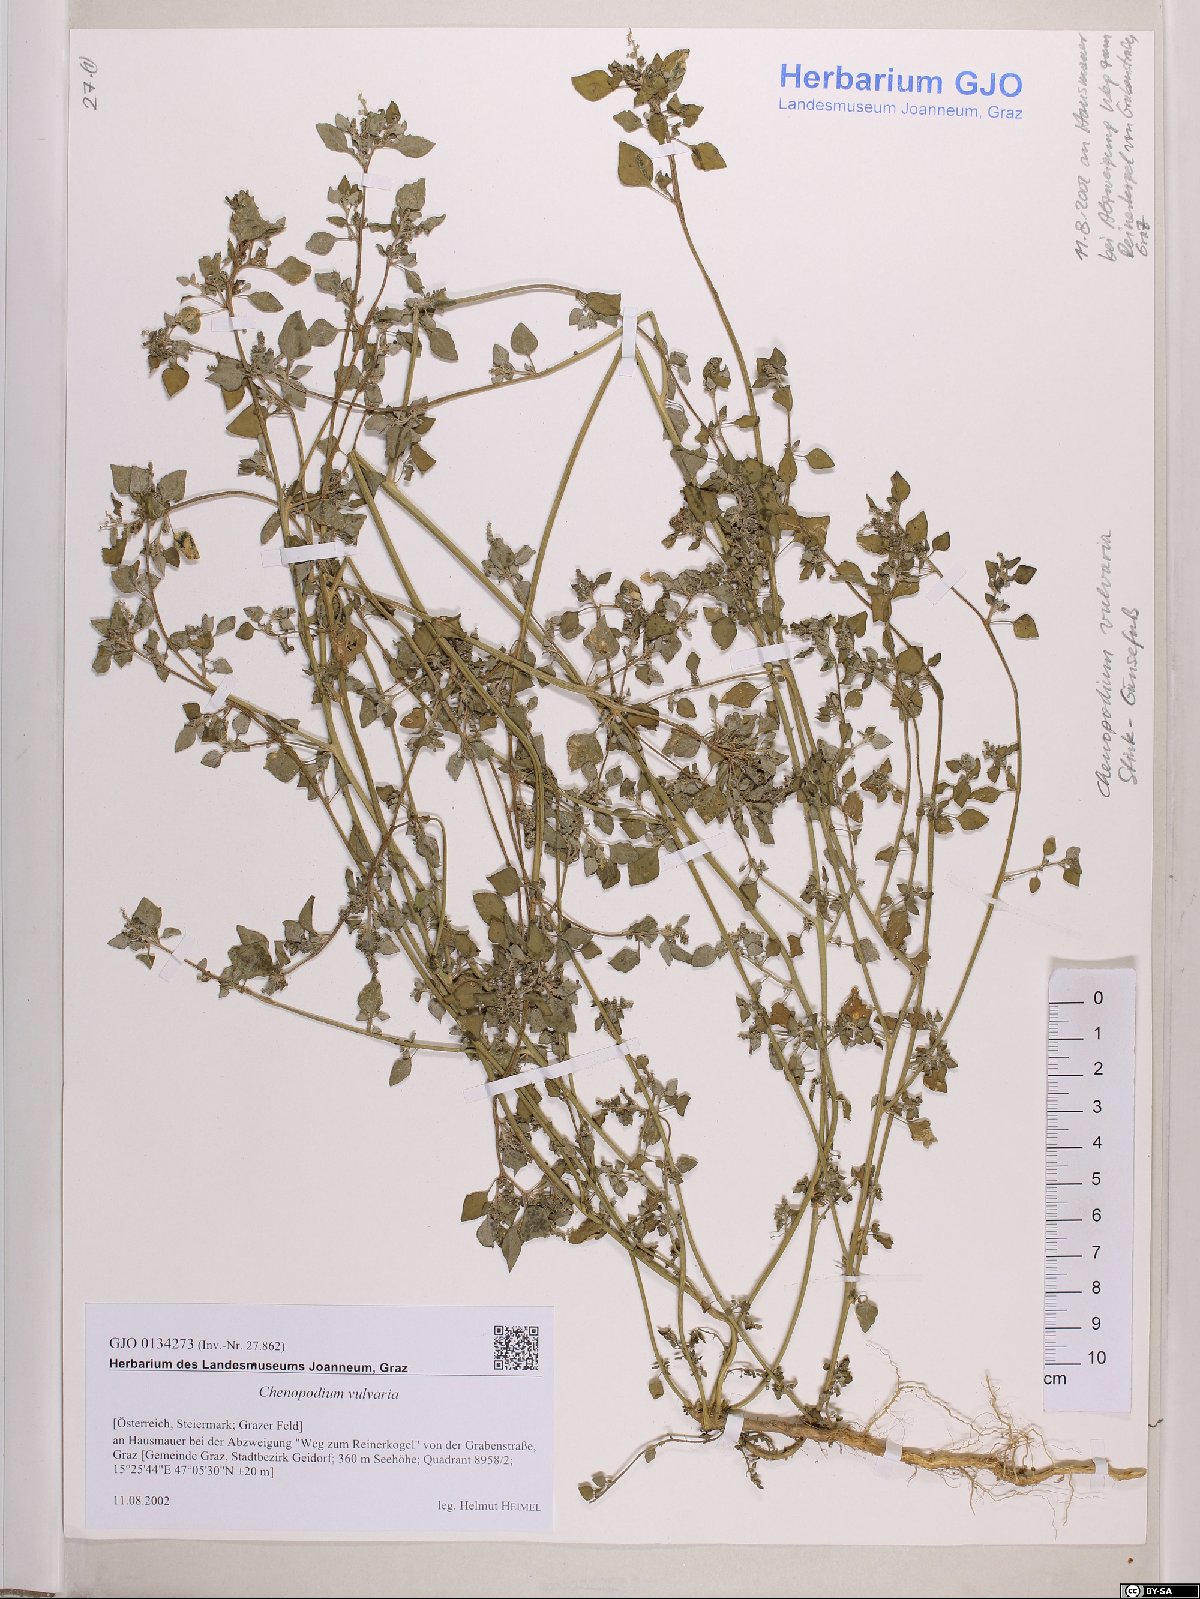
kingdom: Plantae
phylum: Tracheophyta
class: Magnoliopsida
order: Caryophyllales
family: Amaranthaceae
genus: Chenopodium
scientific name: Chenopodium vulvaria
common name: Stinking goosefoot
